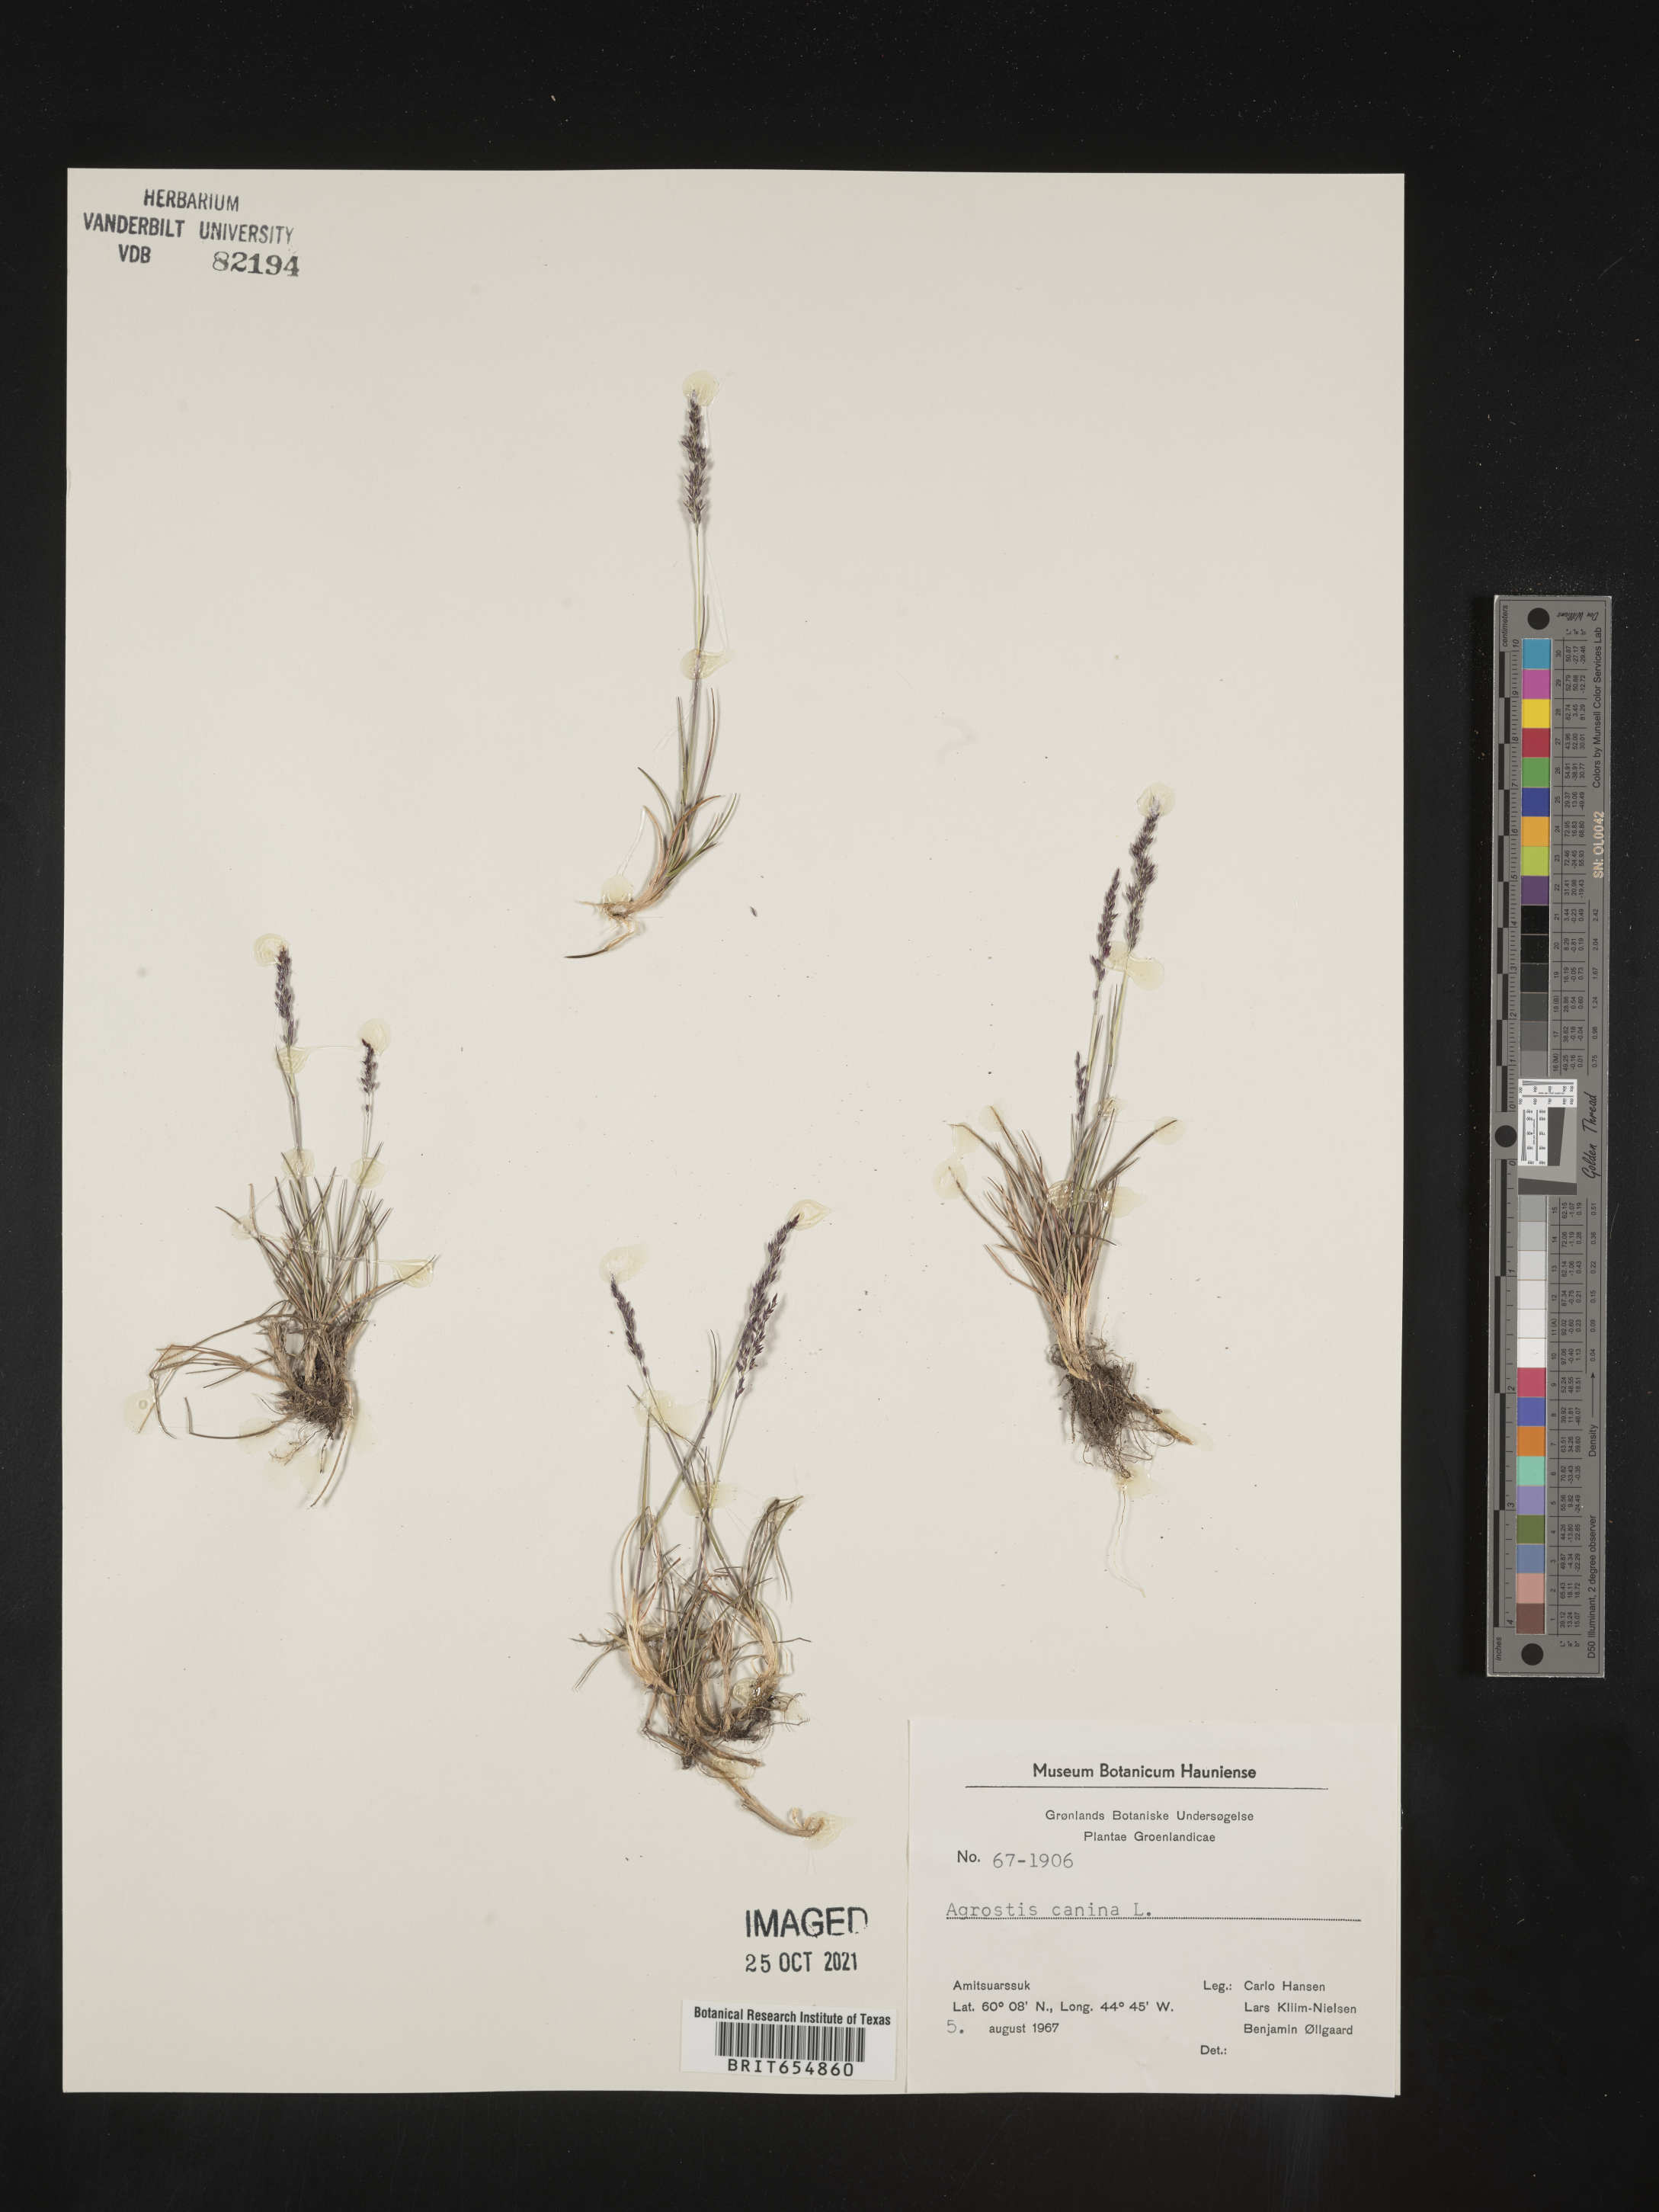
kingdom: Plantae
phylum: Tracheophyta
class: Liliopsida
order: Poales
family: Poaceae
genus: Agrostis
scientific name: Agrostis
